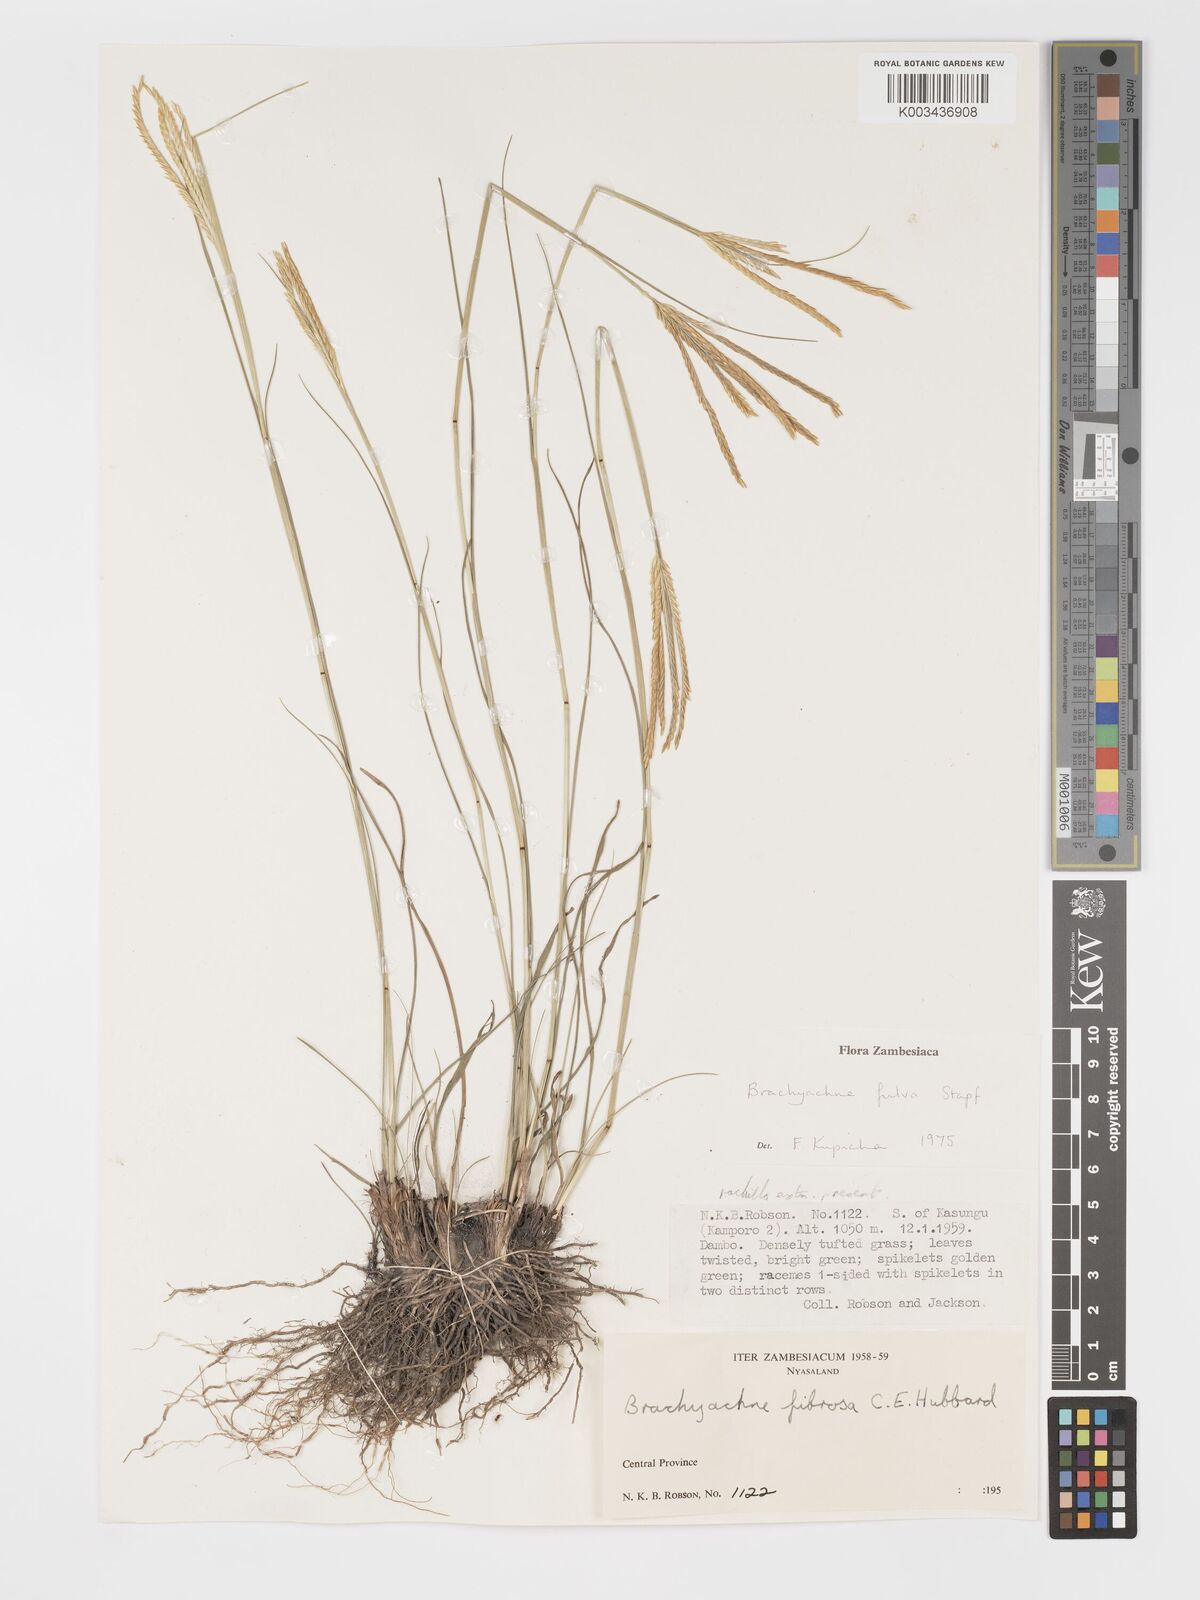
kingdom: Plantae
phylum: Tracheophyta
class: Liliopsida
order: Poales
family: Poaceae
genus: Micrachne
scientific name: Micrachne fulva
